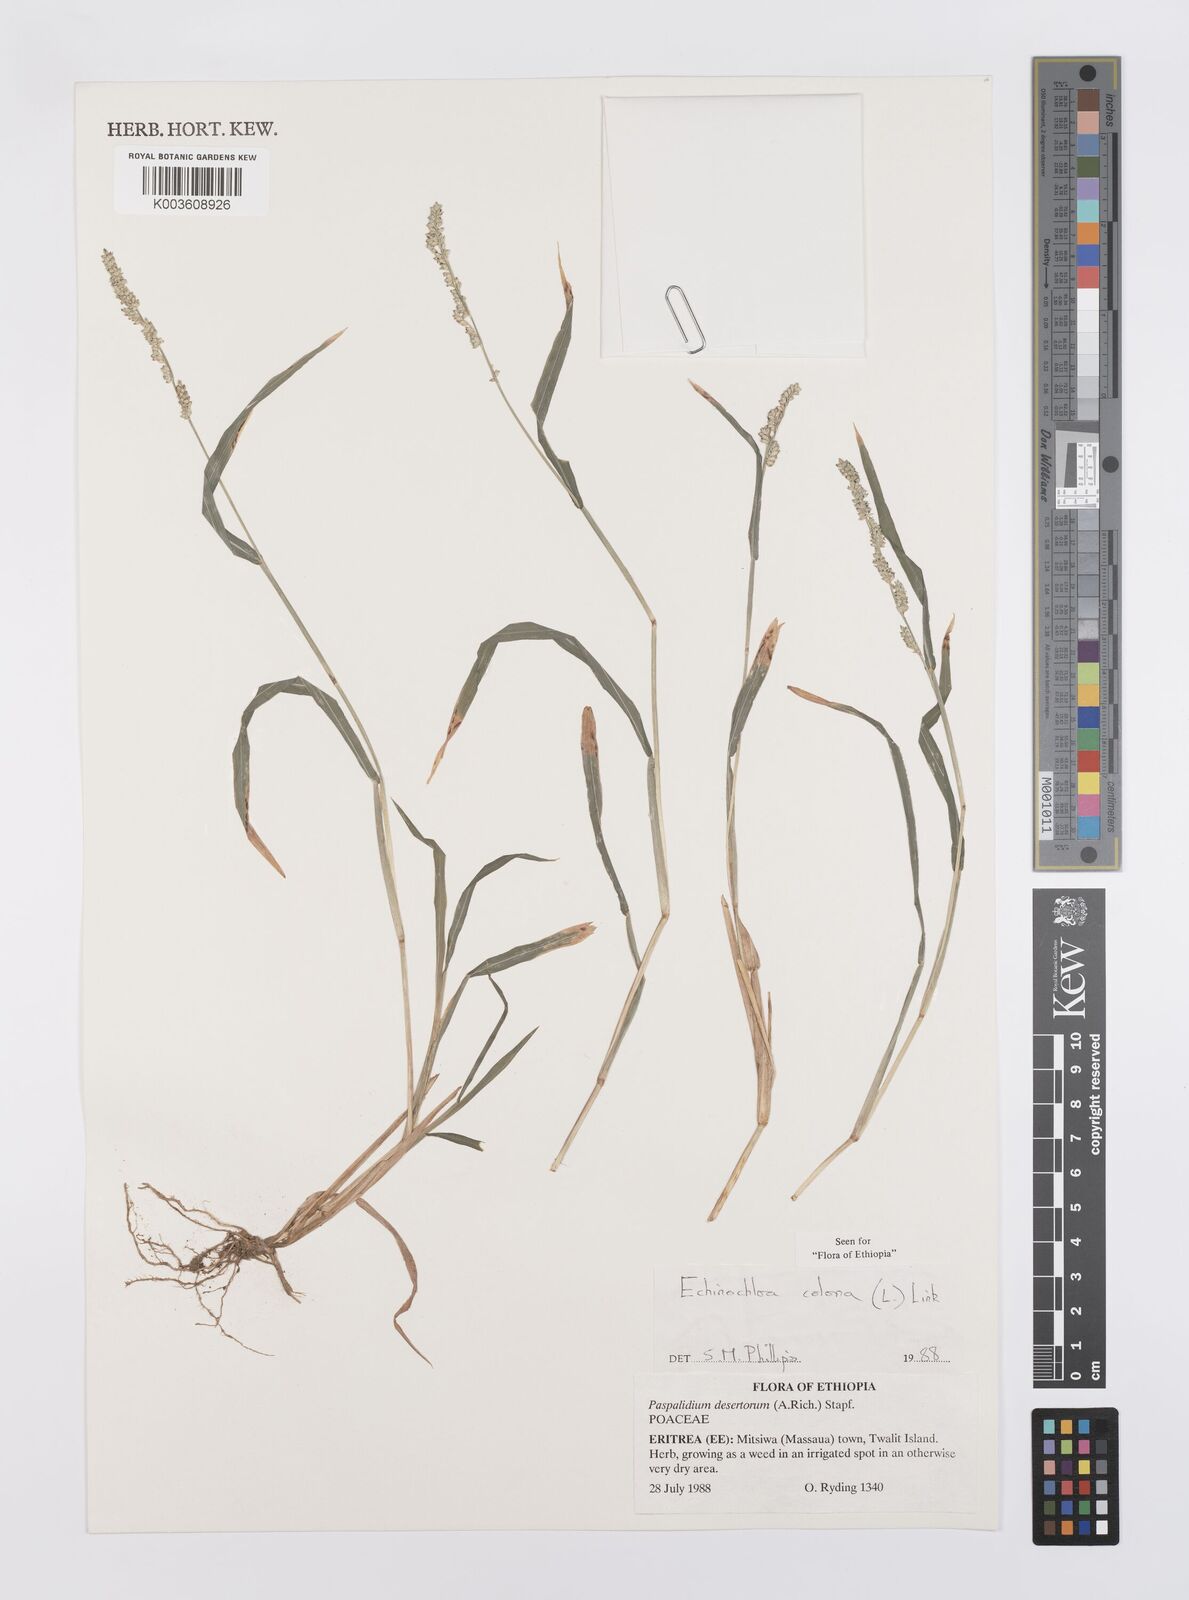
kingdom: Plantae
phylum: Tracheophyta
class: Liliopsida
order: Poales
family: Poaceae
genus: Echinochloa
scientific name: Echinochloa colonum
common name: Jungle rice
